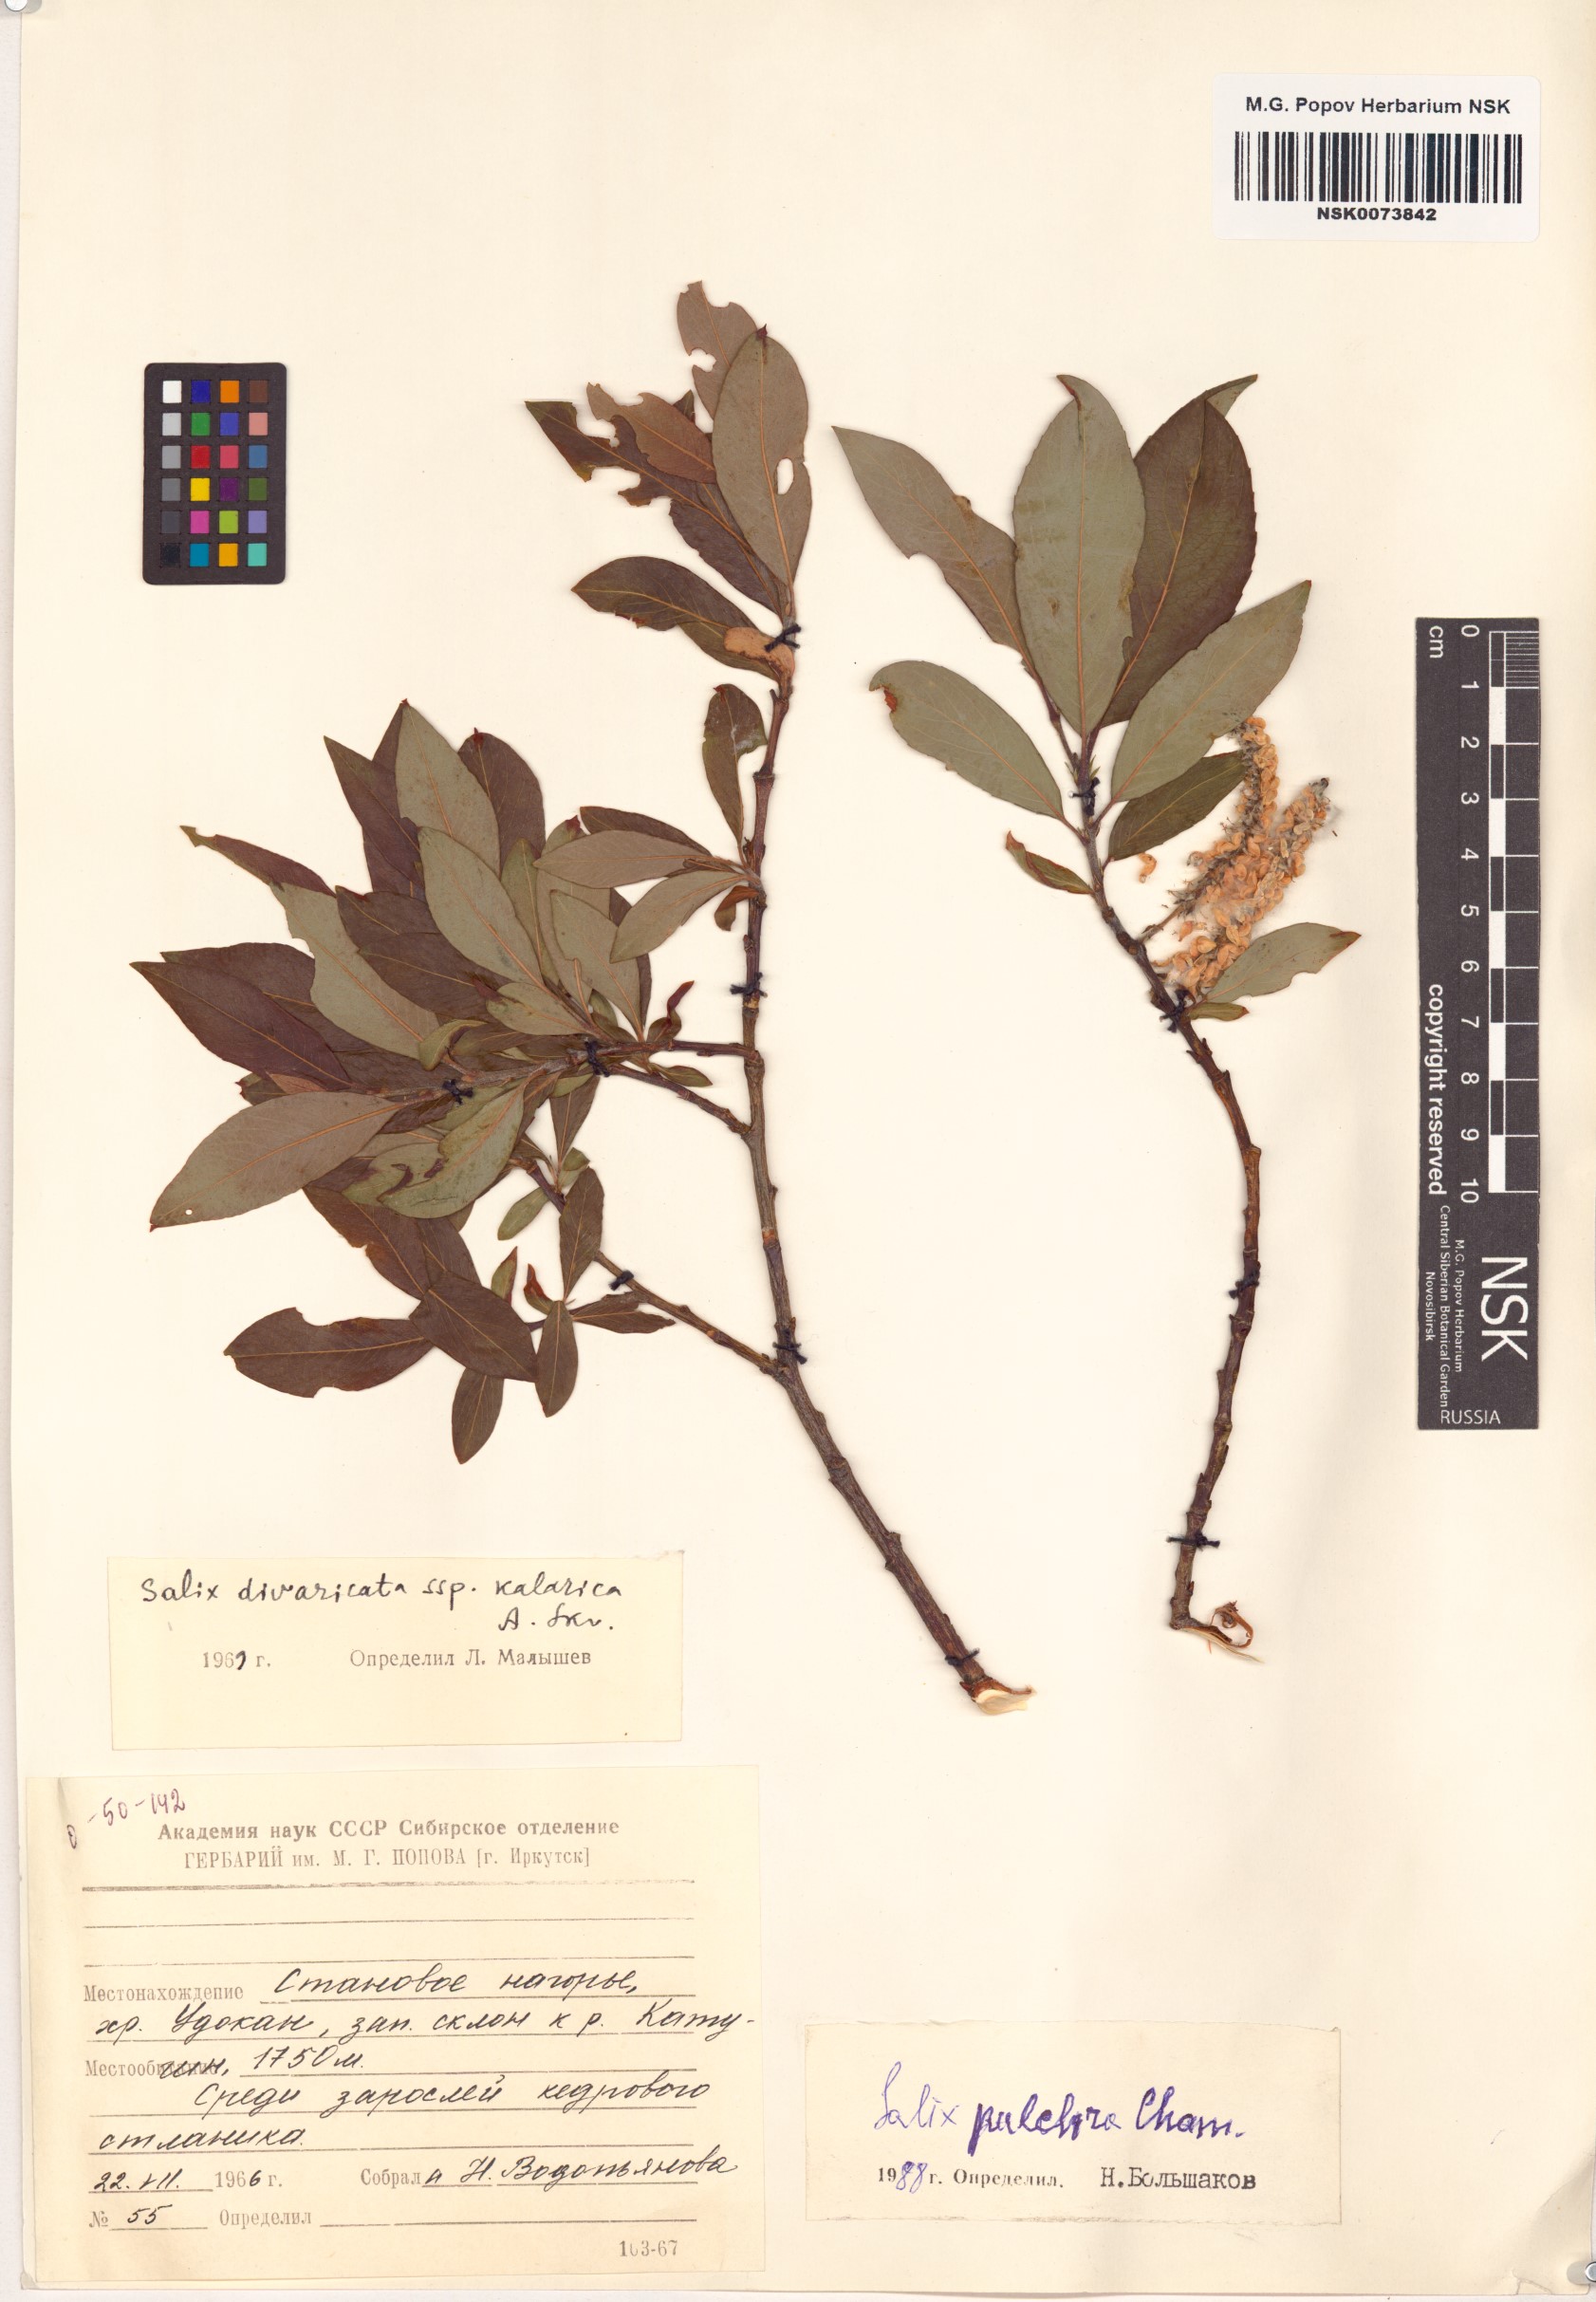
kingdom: Plantae
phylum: Tracheophyta
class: Magnoliopsida
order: Malpighiales
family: Salicaceae
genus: Salix
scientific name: Salix pulchra
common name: Diamond-leaved willow
